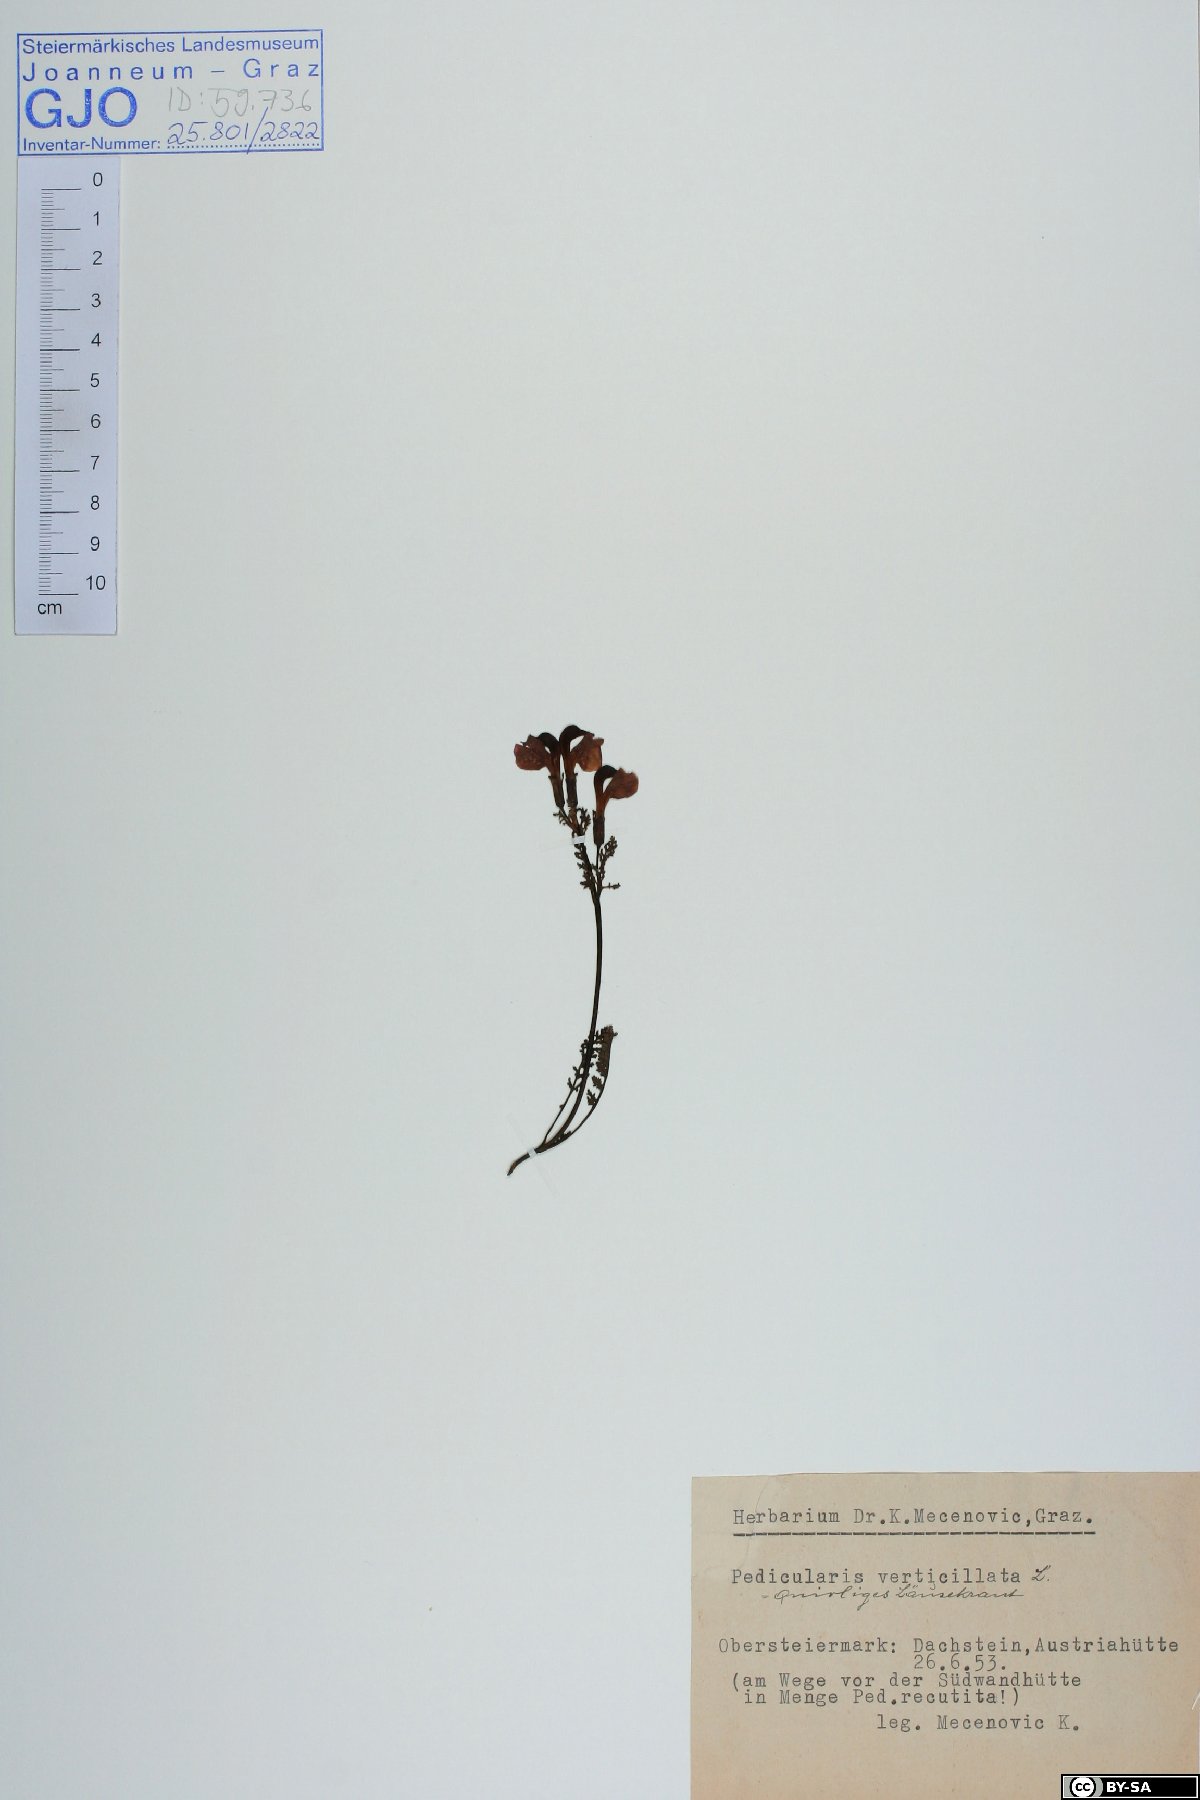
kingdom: Plantae
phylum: Tracheophyta
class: Magnoliopsida
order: Lamiales
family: Orobanchaceae
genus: Pedicularis
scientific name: Pedicularis rostratocapitata
